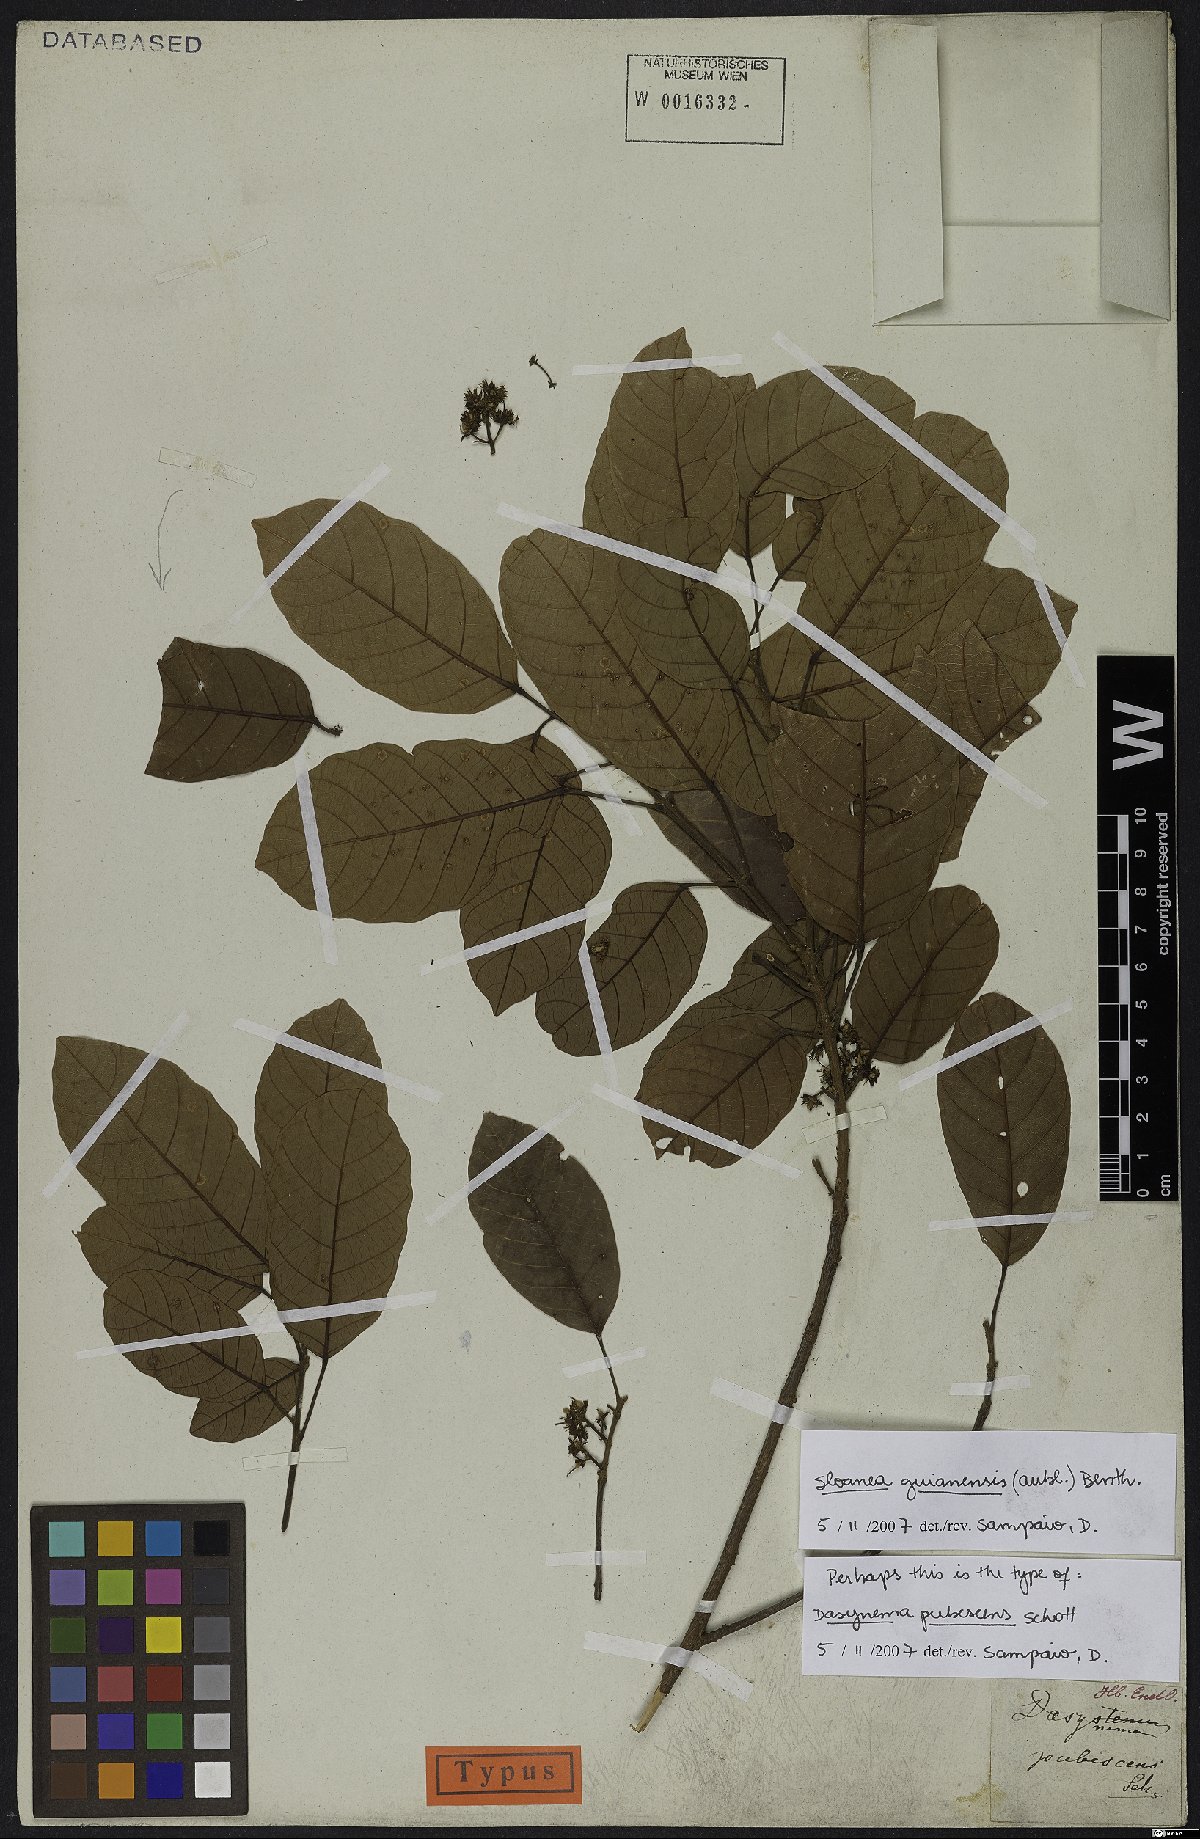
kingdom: Plantae
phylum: Tracheophyta
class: Magnoliopsida
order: Oxalidales
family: Elaeocarpaceae
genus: Sloanea
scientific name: Sloanea guianensis
